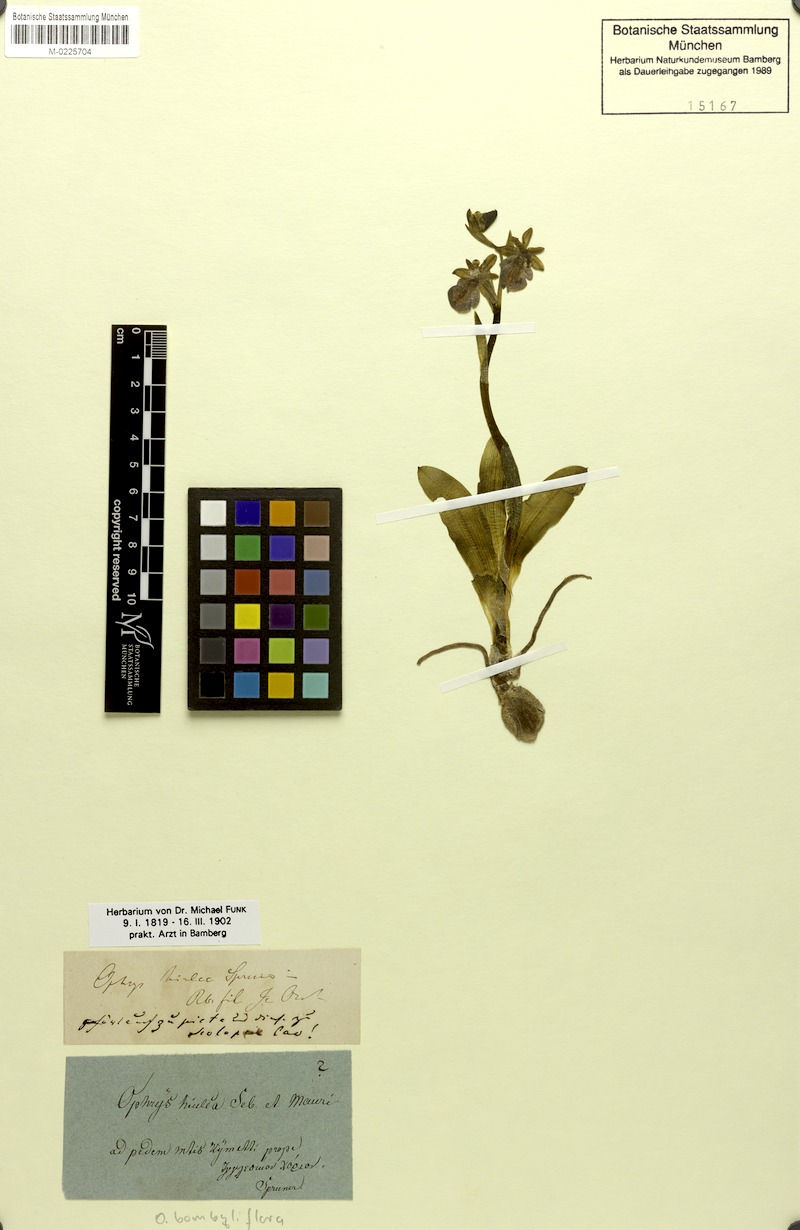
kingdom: Plantae
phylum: Tracheophyta
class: Liliopsida
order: Asparagales
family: Orchidaceae
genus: Ophrys
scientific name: Ophrys sphegodes
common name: Early spider-orchid
